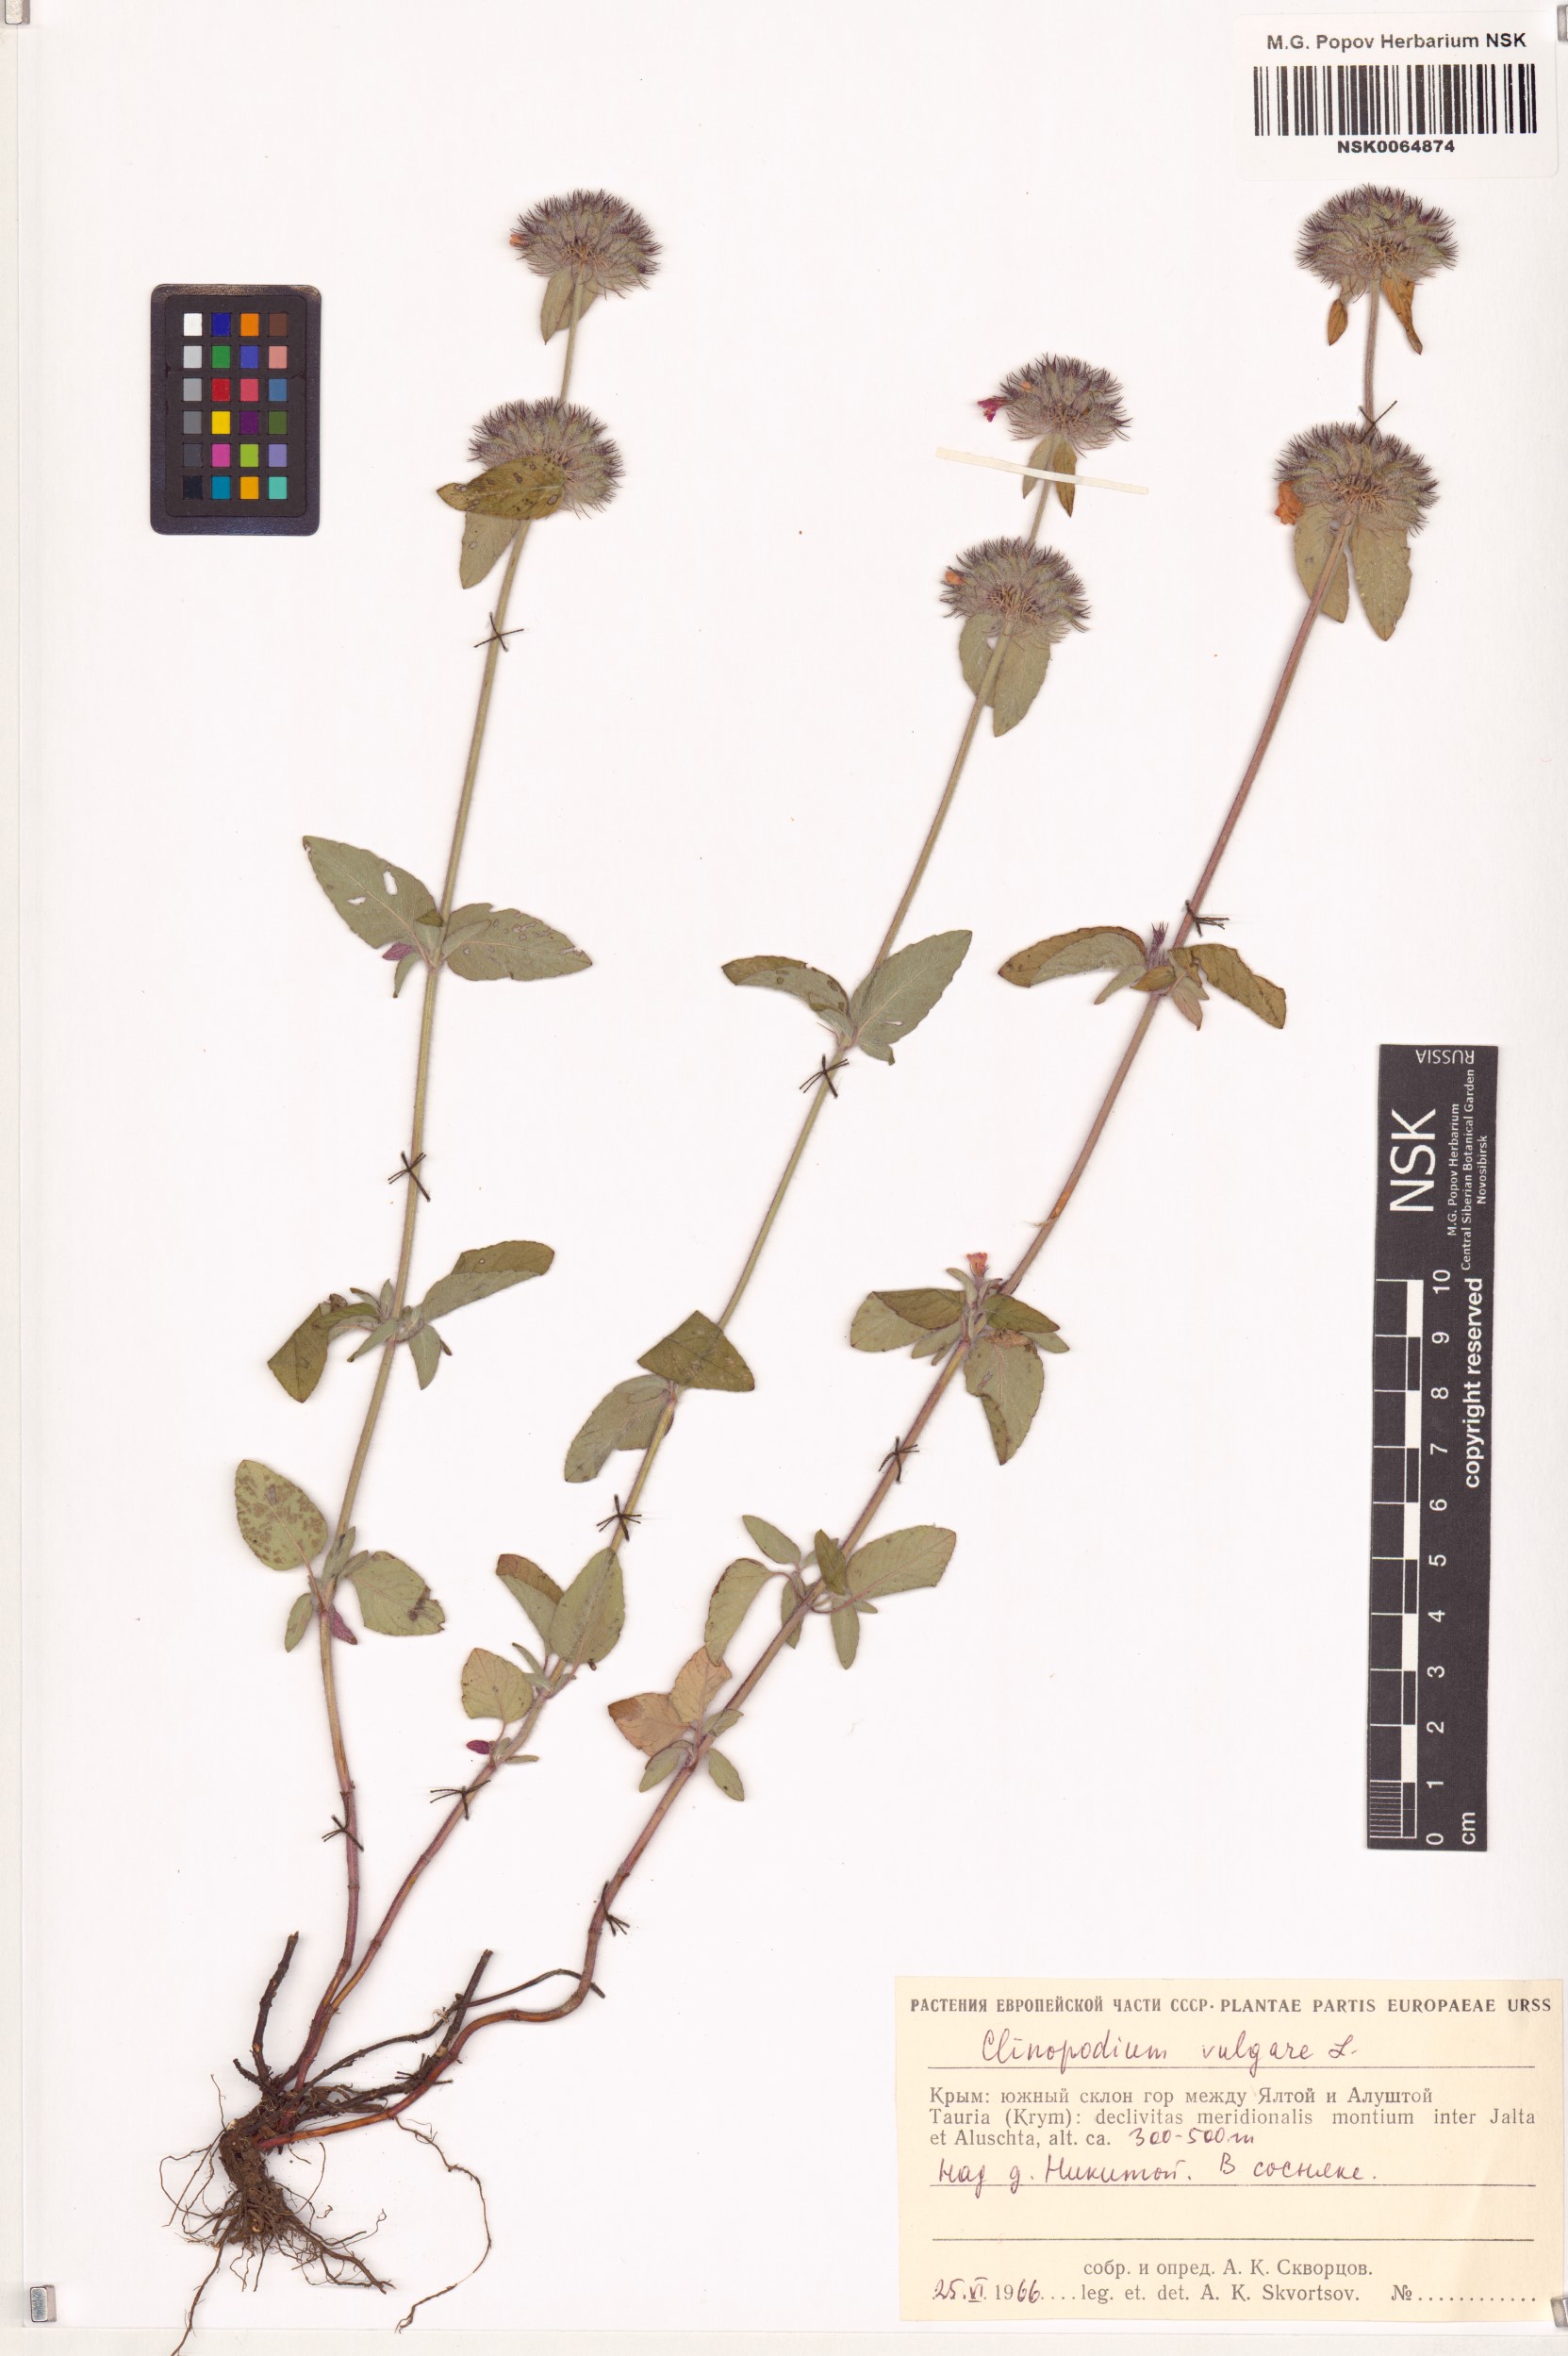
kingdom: Plantae
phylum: Tracheophyta
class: Magnoliopsida
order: Lamiales
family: Lamiaceae
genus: Clinopodium
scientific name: Clinopodium vulgare
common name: Wild basil
